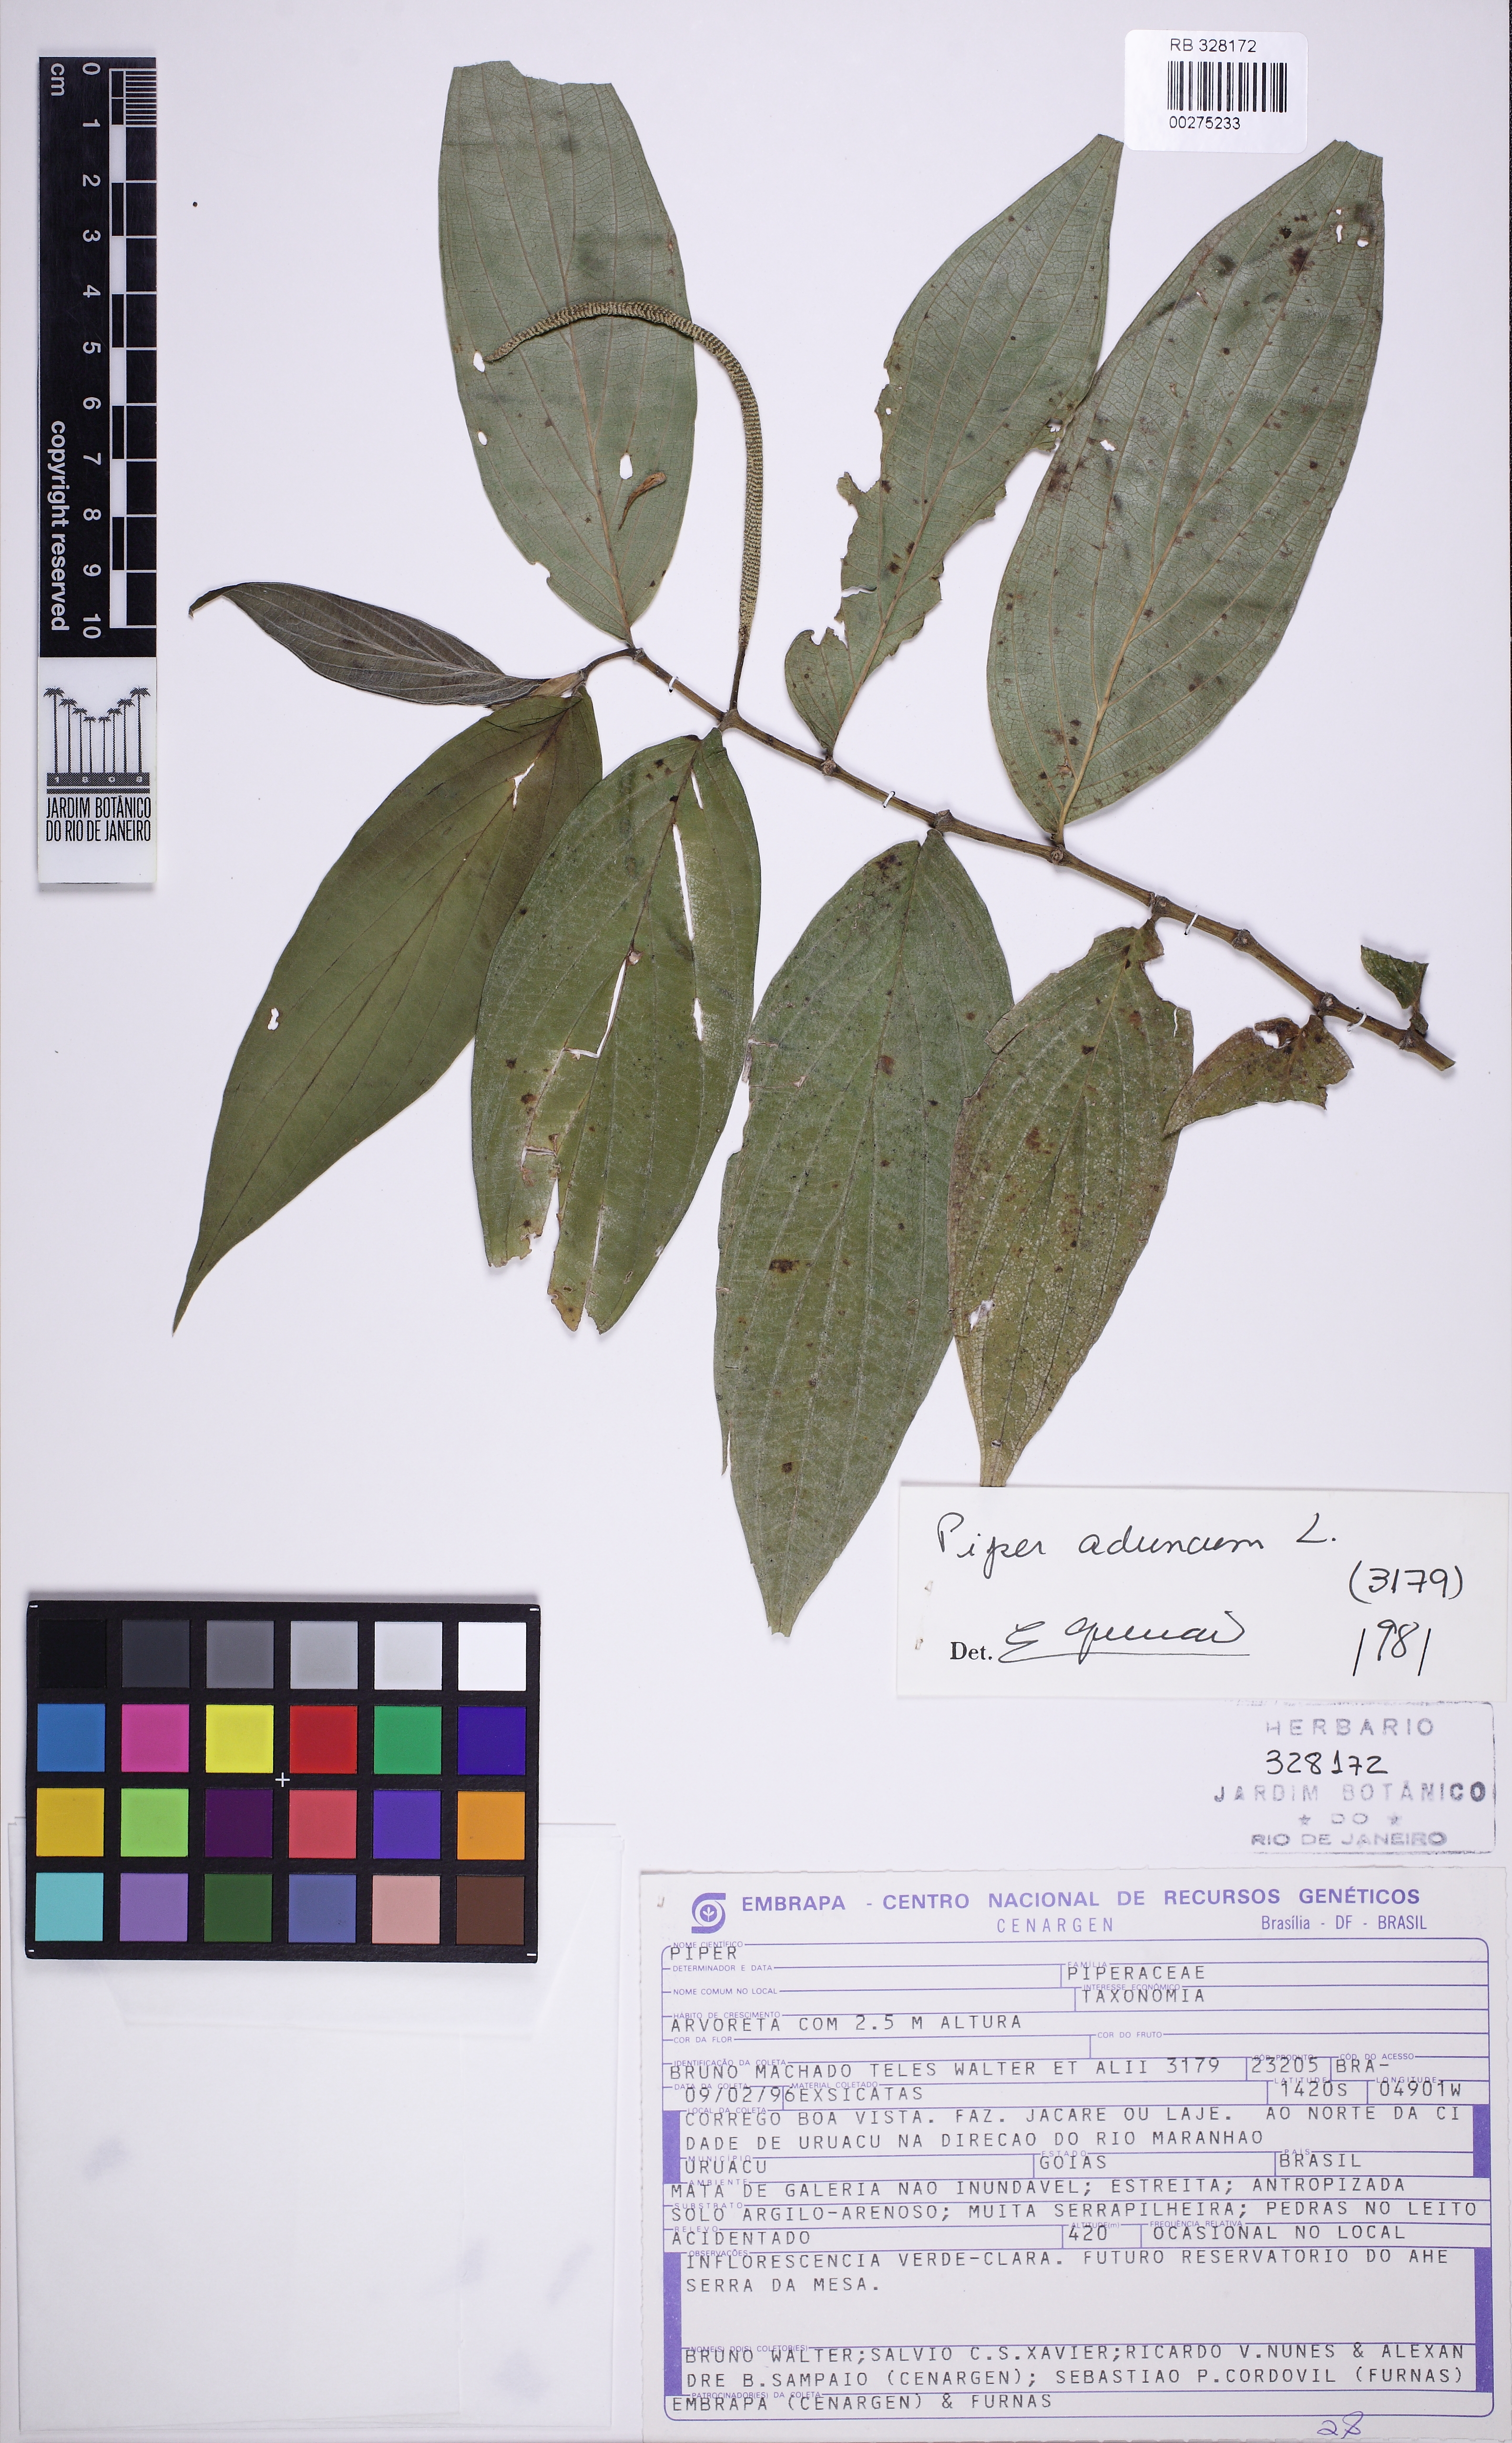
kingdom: Plantae
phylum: Tracheophyta
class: Magnoliopsida
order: Piperales
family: Piperaceae
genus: Piper
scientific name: Piper aduncum
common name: Spiked pepper
